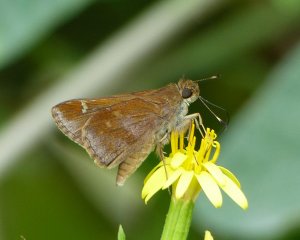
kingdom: Animalia
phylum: Arthropoda
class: Insecta
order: Lepidoptera
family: Hesperiidae
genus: Lerema
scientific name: Lerema accius
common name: Clouded Skipper
